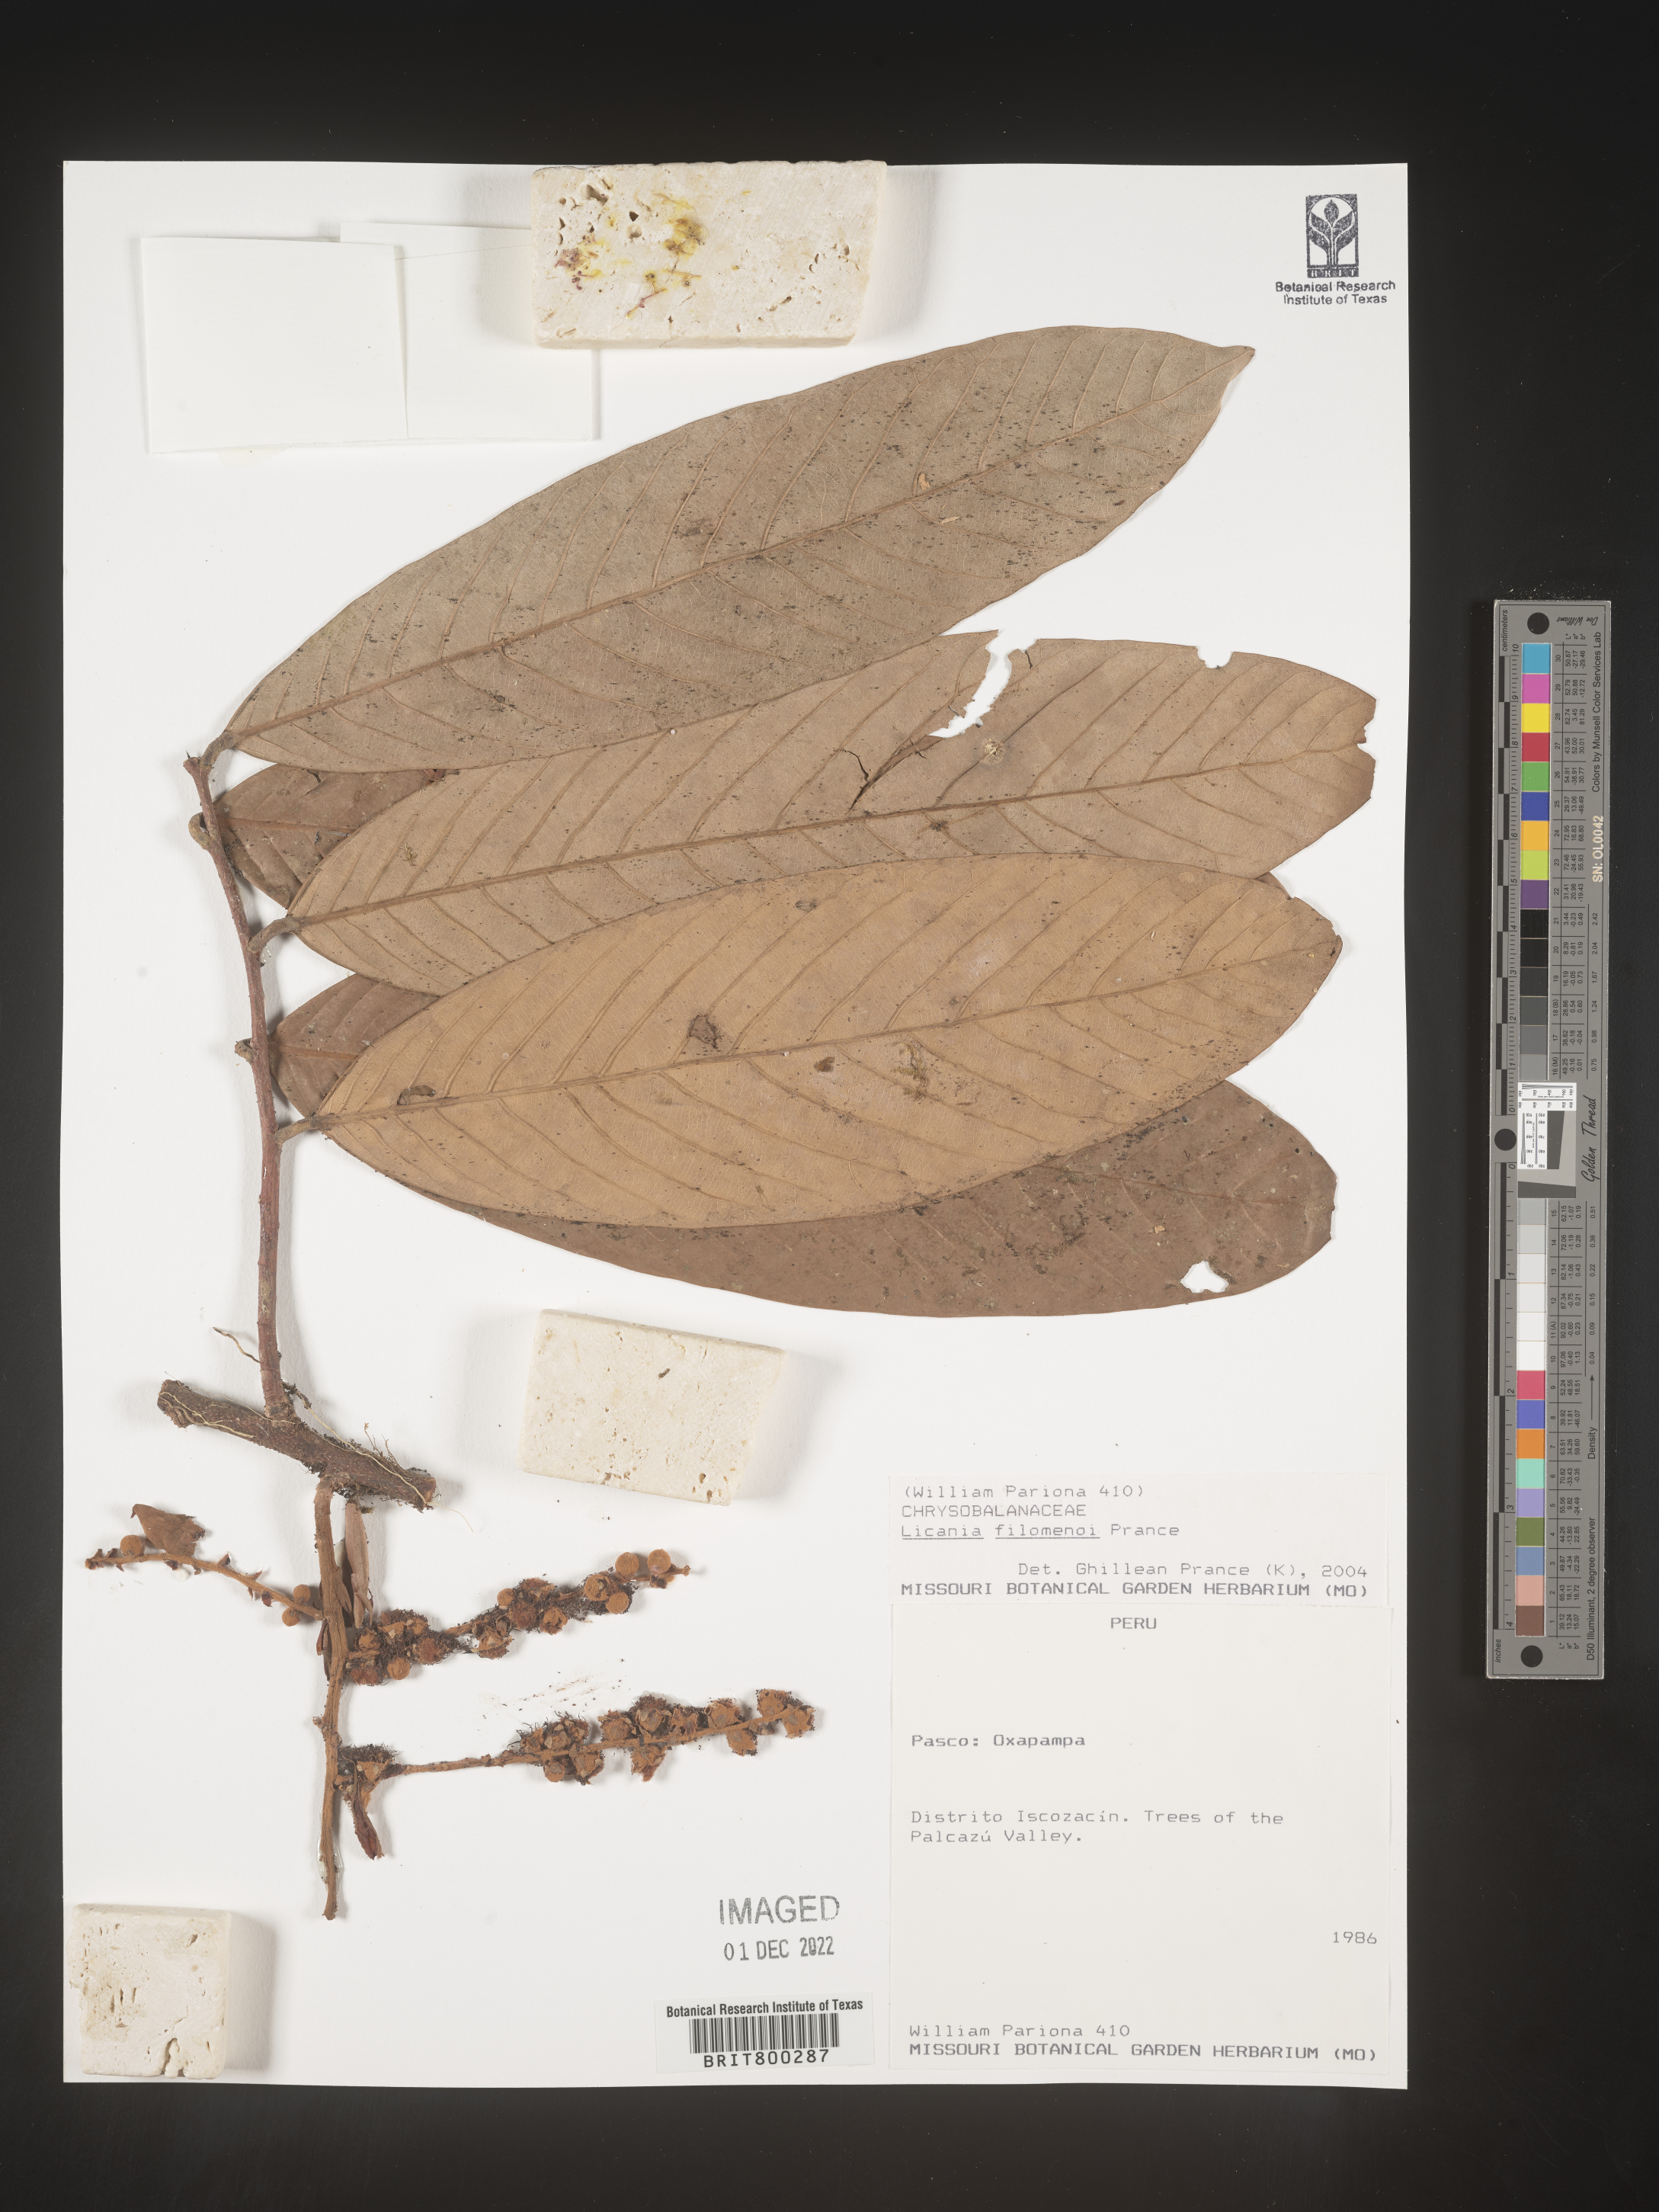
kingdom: Plantae
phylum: Tracheophyta
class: Magnoliopsida
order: Malpighiales
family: Chrysobalanaceae
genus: Geobalanus
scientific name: Geobalanus oblongifolius
